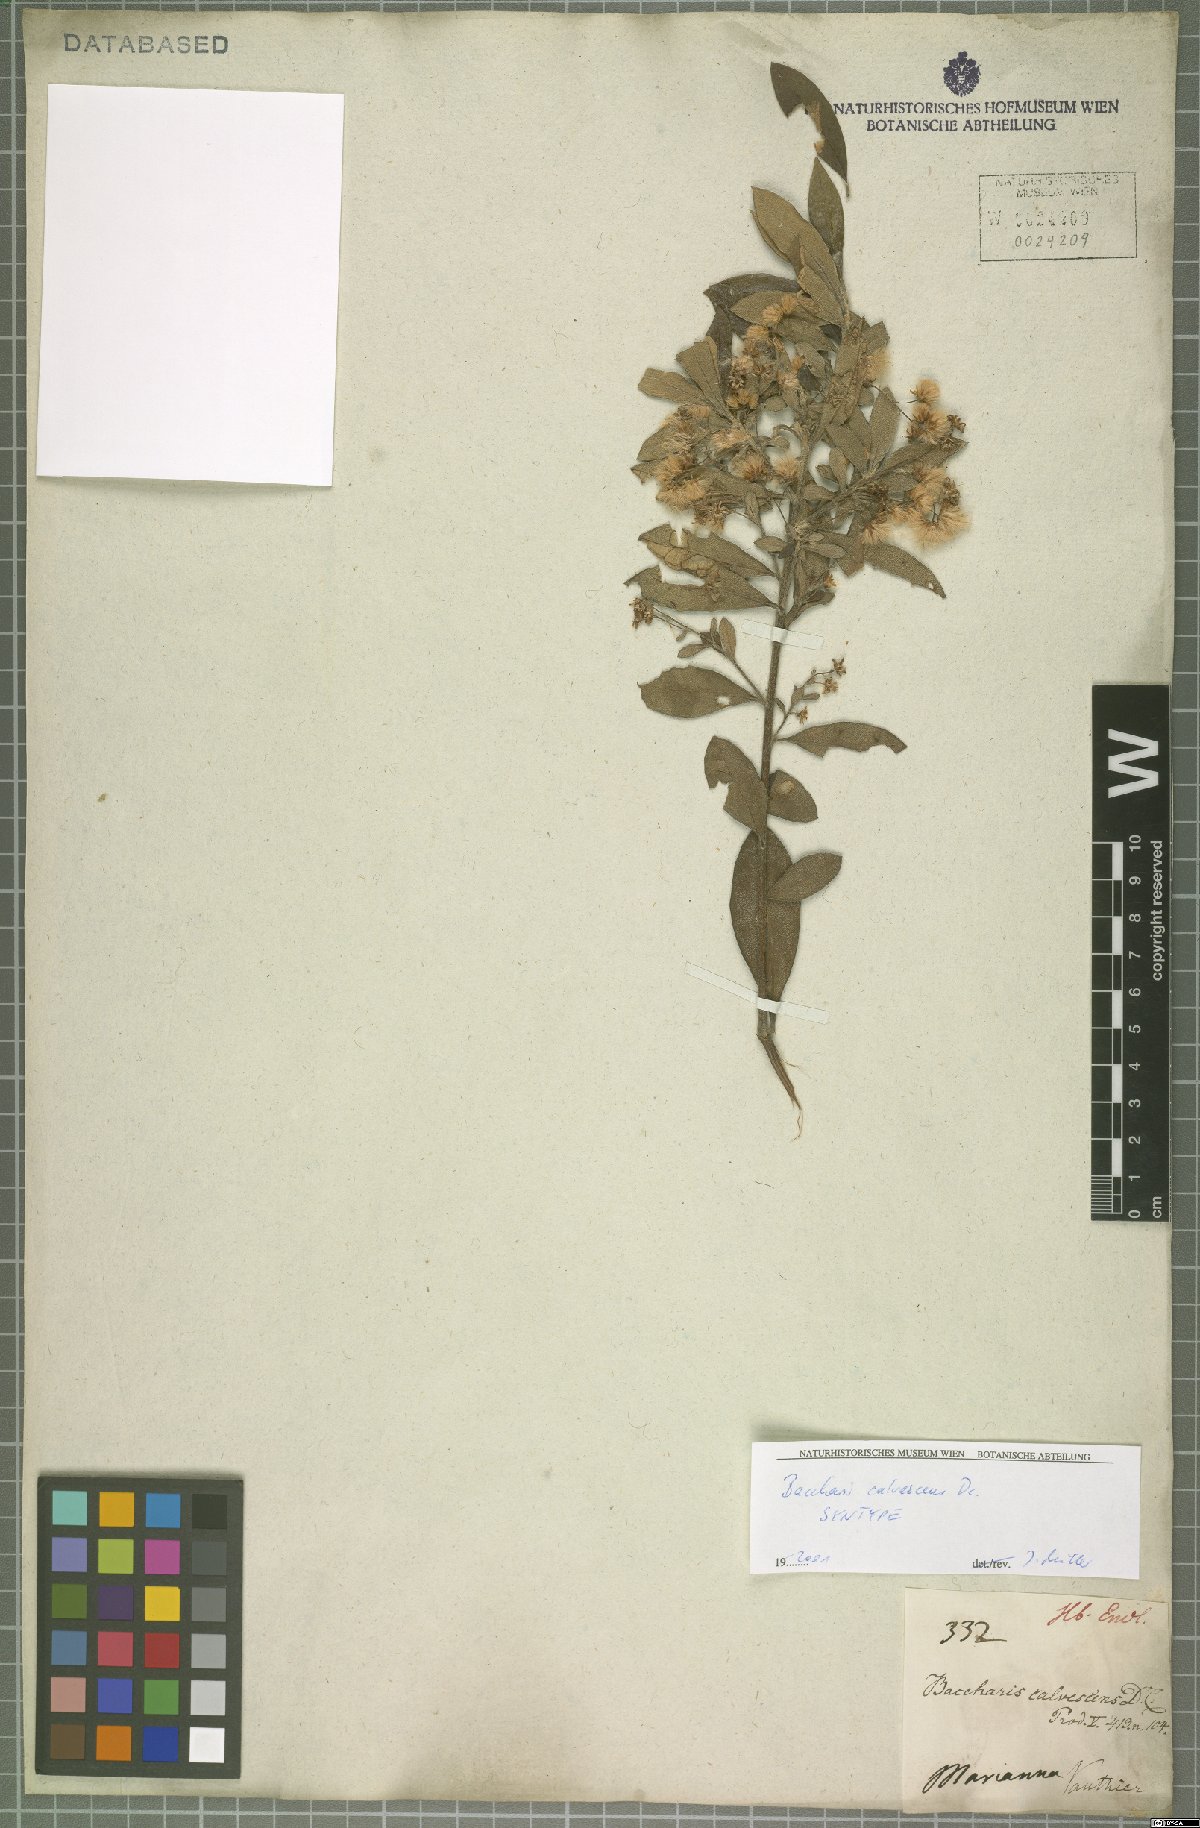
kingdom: Plantae
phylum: Tracheophyta
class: Magnoliopsida
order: Asterales
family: Asteraceae
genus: Baccharis
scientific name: Baccharis calvescens
